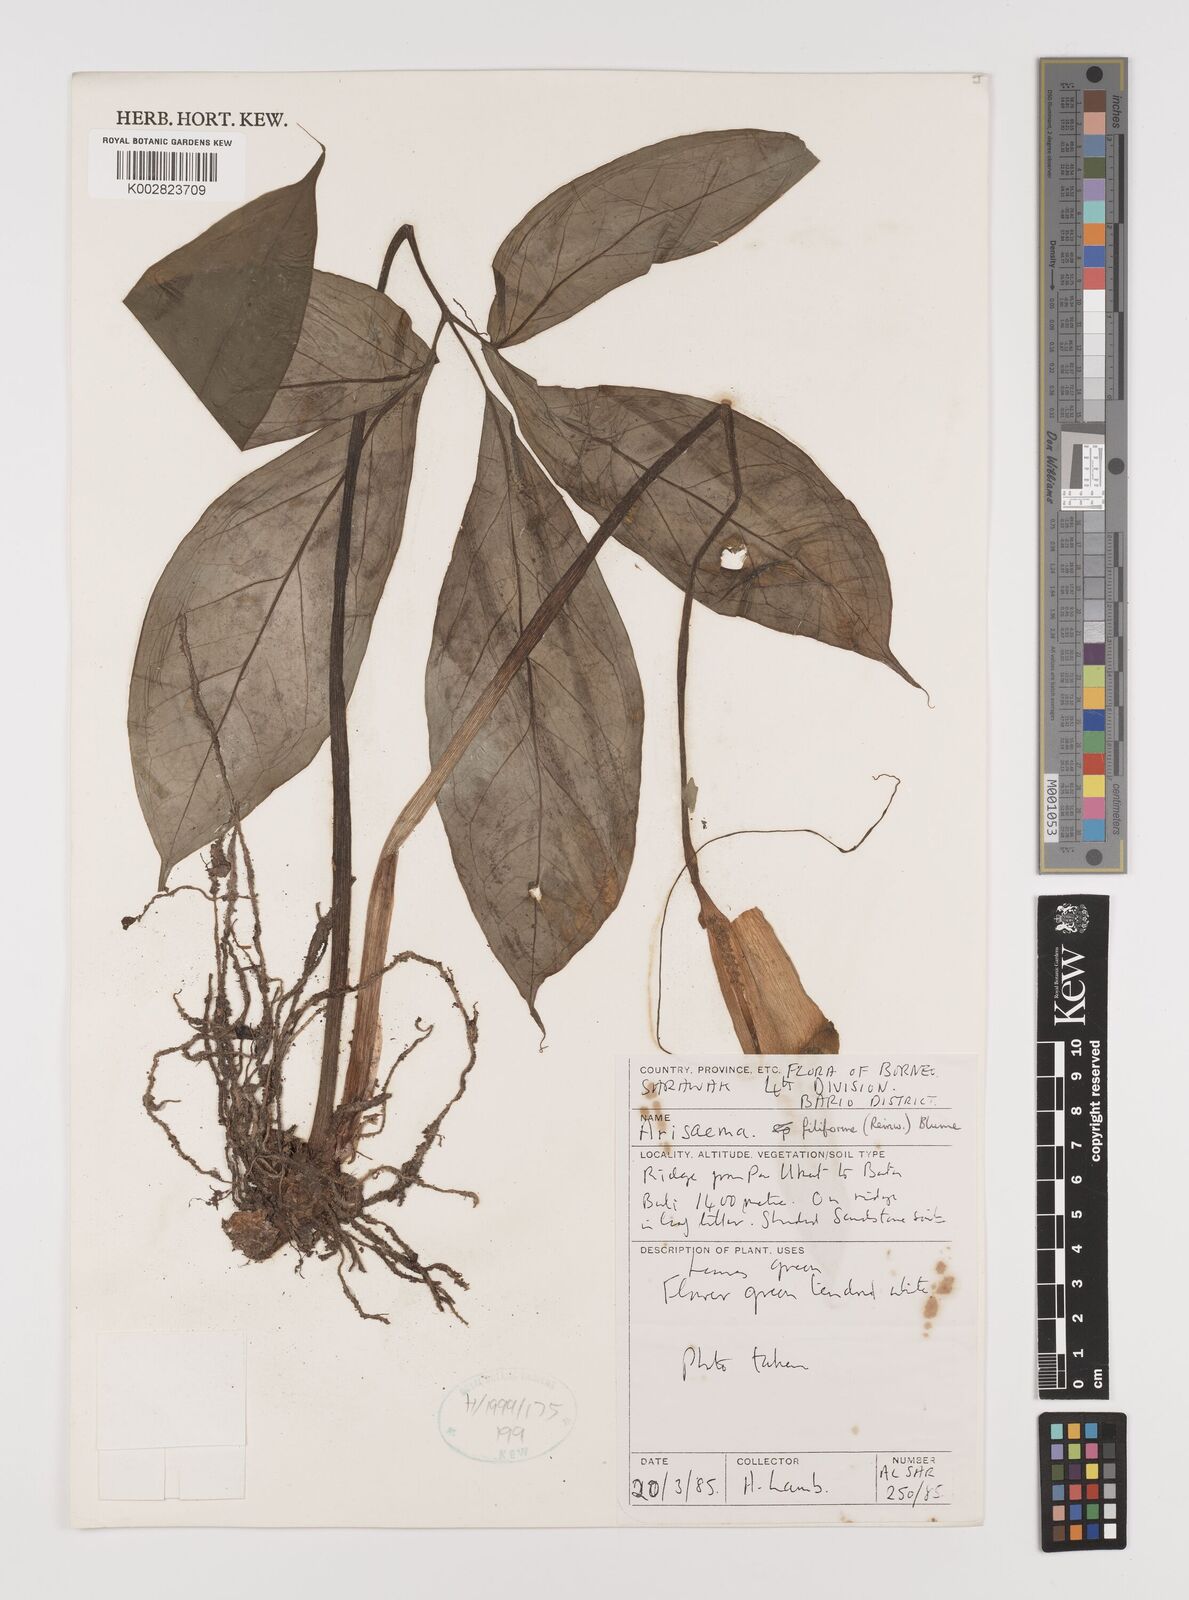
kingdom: Plantae
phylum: Tracheophyta
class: Liliopsida
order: Alismatales
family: Araceae
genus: Arisaema
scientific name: Arisaema filiforme
